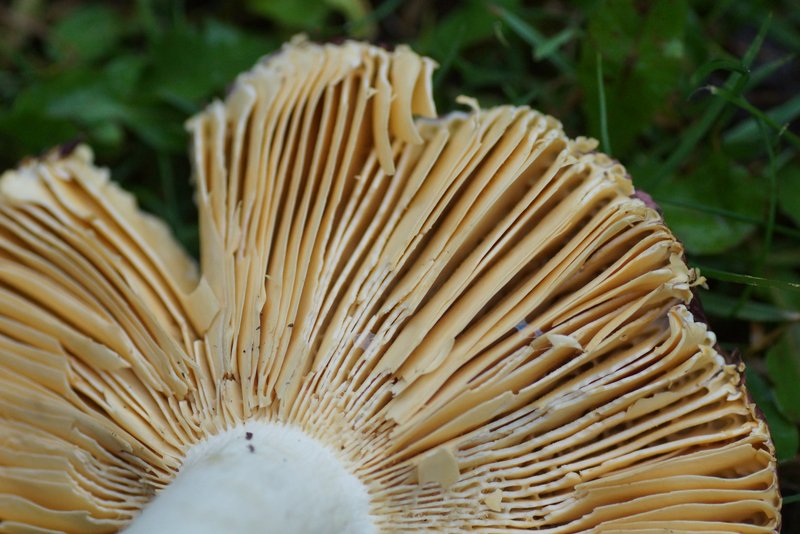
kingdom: Fungi
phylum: Basidiomycota
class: Agaricomycetes
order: Russulales
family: Russulaceae
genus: Russula
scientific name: Russula integra
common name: mandel-skørhat
